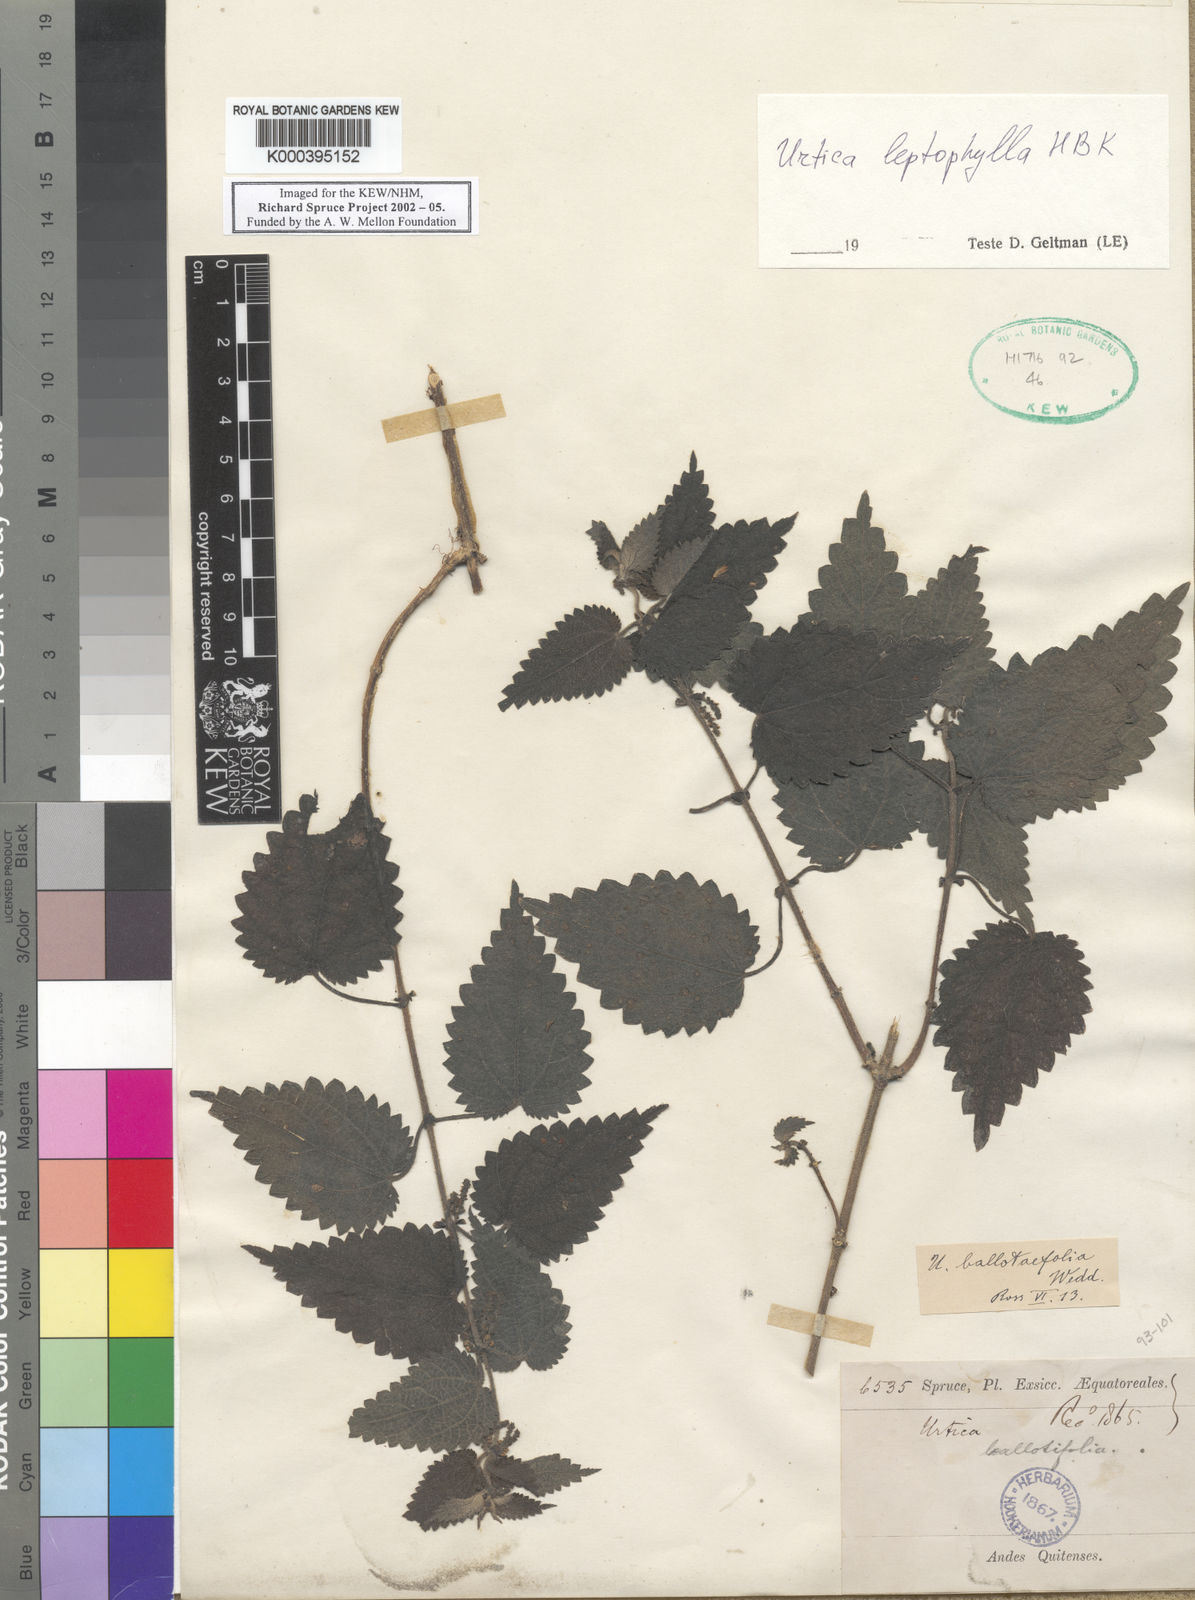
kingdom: Plantae
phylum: Tracheophyta
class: Magnoliopsida
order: Rosales
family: Urticaceae
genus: Urtica
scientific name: Urtica leptophylla
